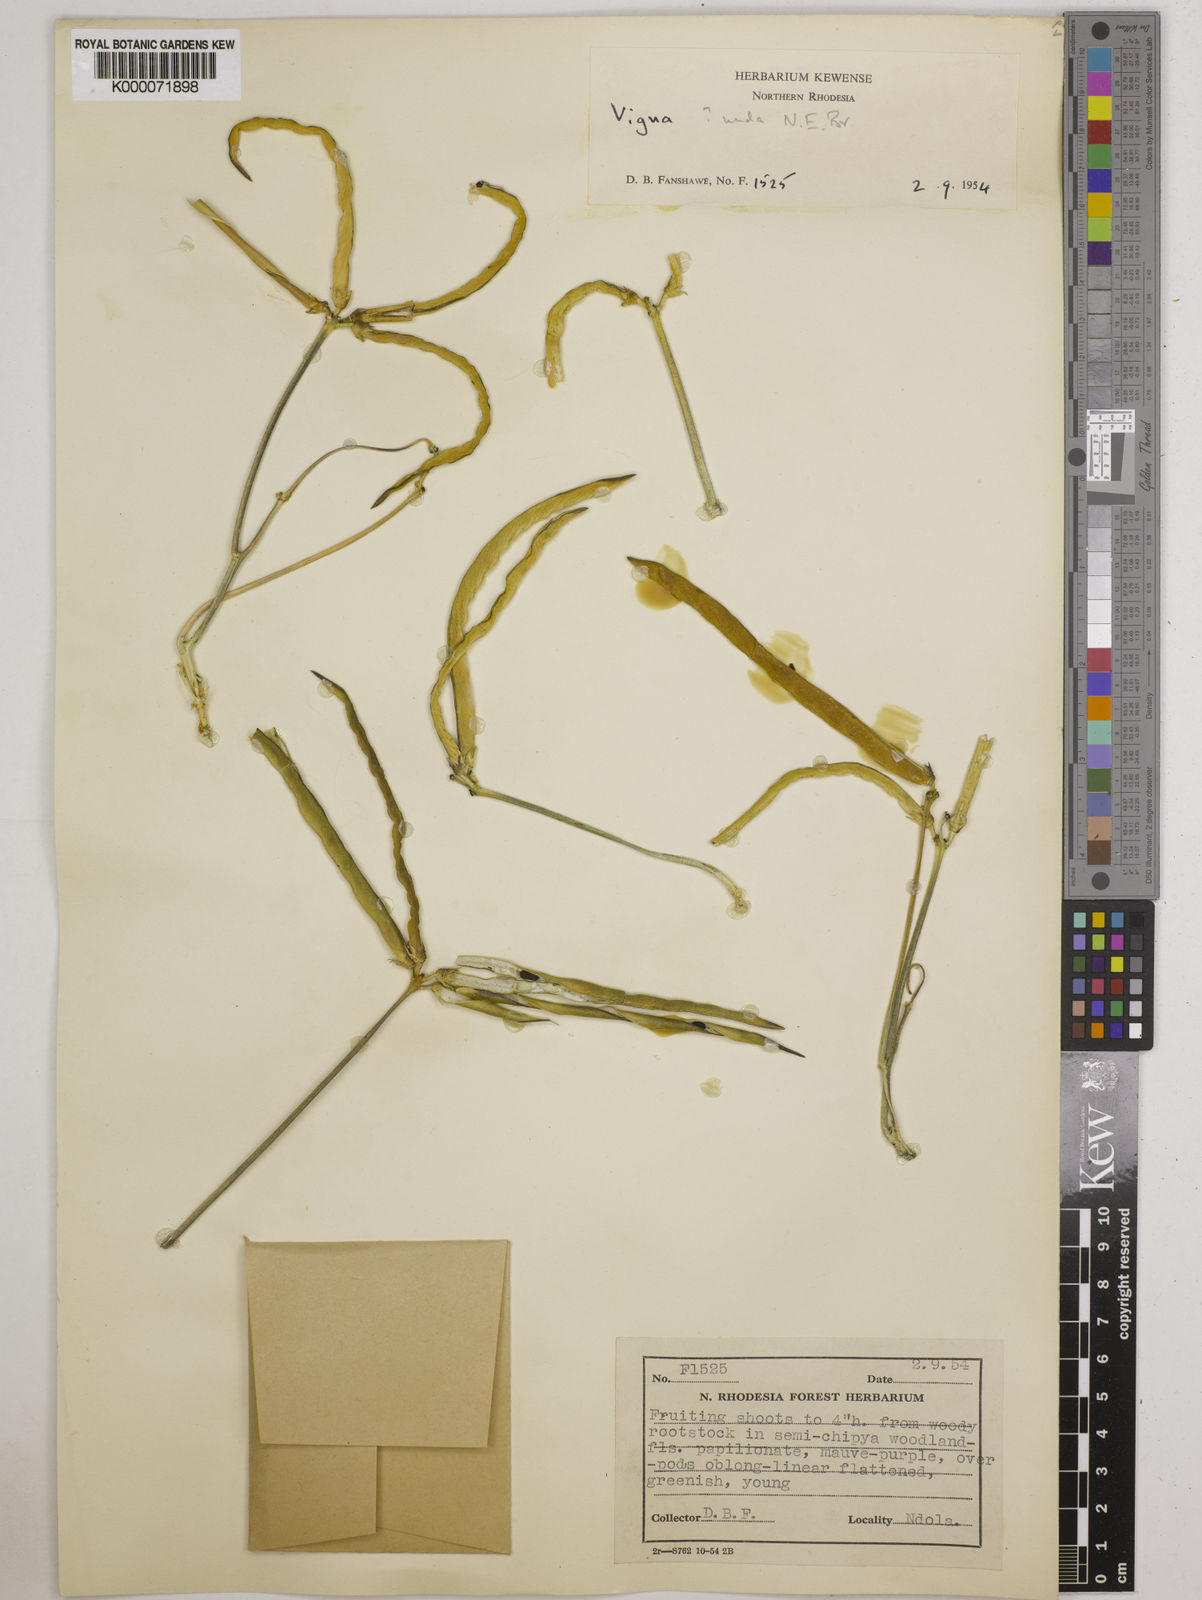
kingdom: Plantae
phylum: Tracheophyta
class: Magnoliopsida
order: Fabales
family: Fabaceae
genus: Vigna
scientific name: Vigna antunesii
